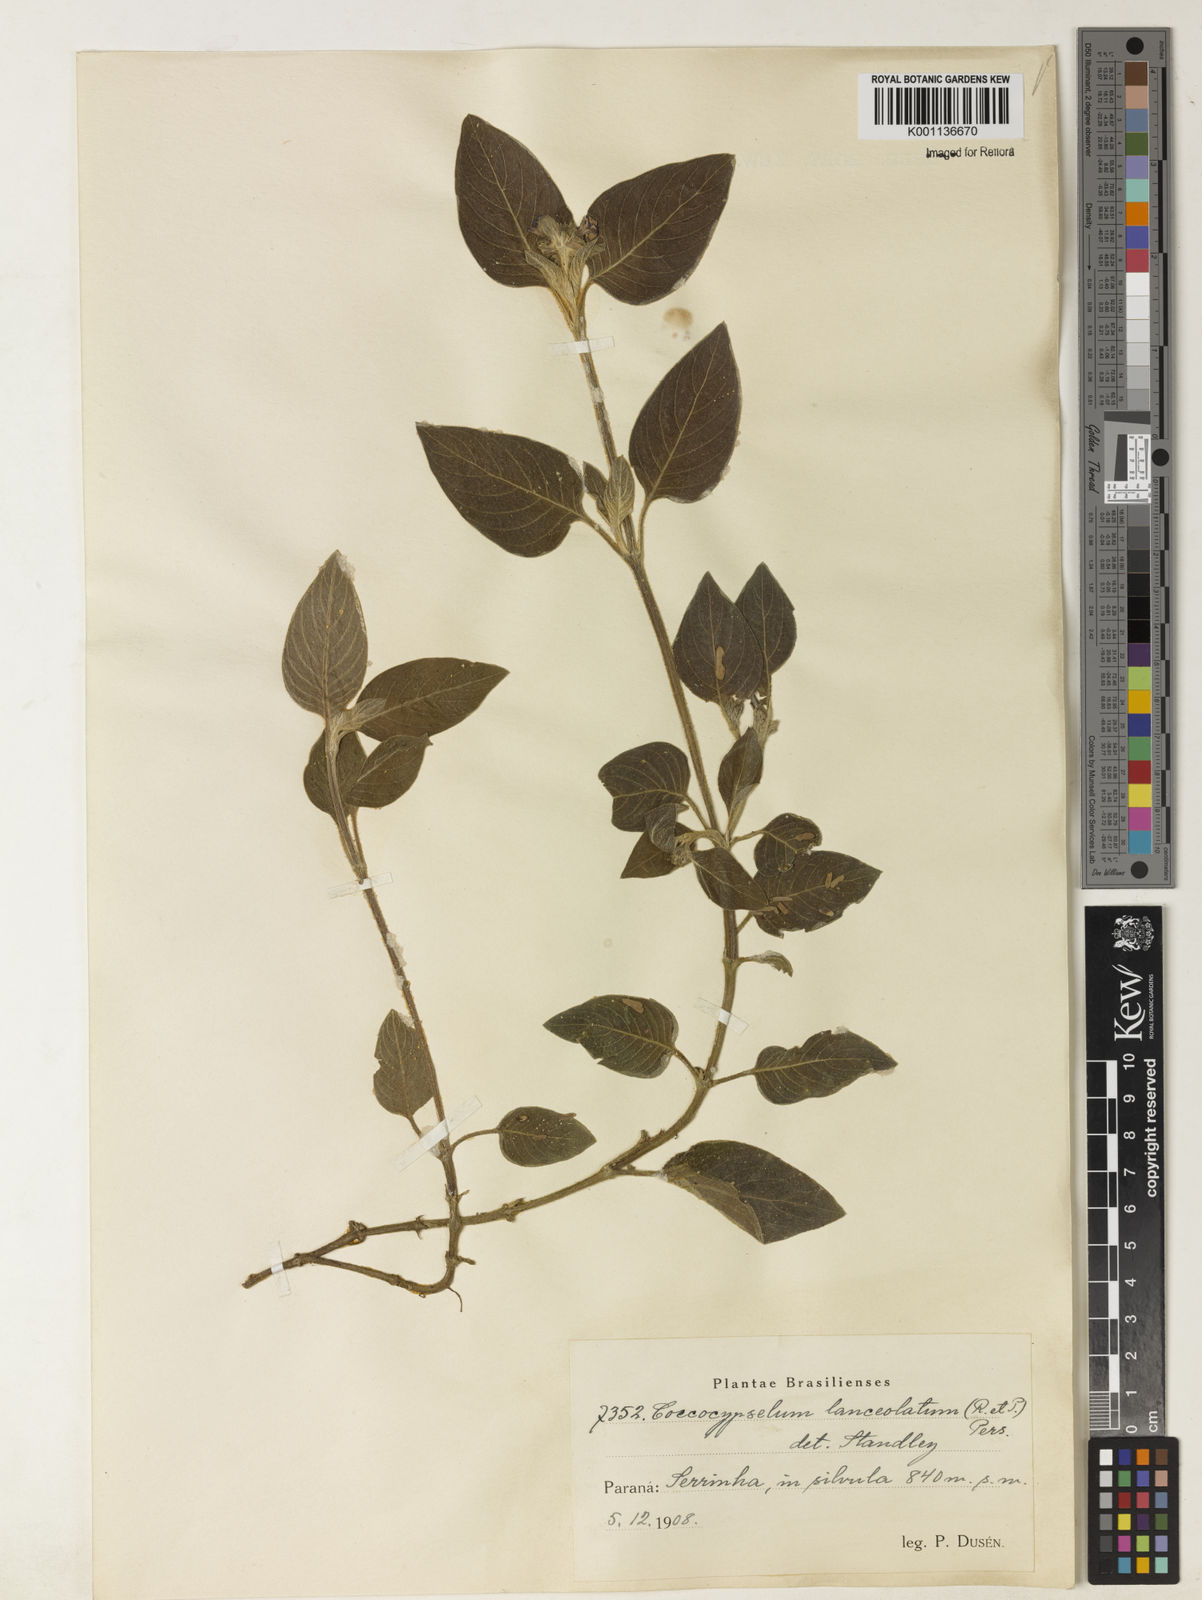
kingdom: Plantae
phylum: Tracheophyta
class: Magnoliopsida
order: Gentianales
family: Rubiaceae
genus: Coccocypselum
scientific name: Coccocypselum lanceolatum
